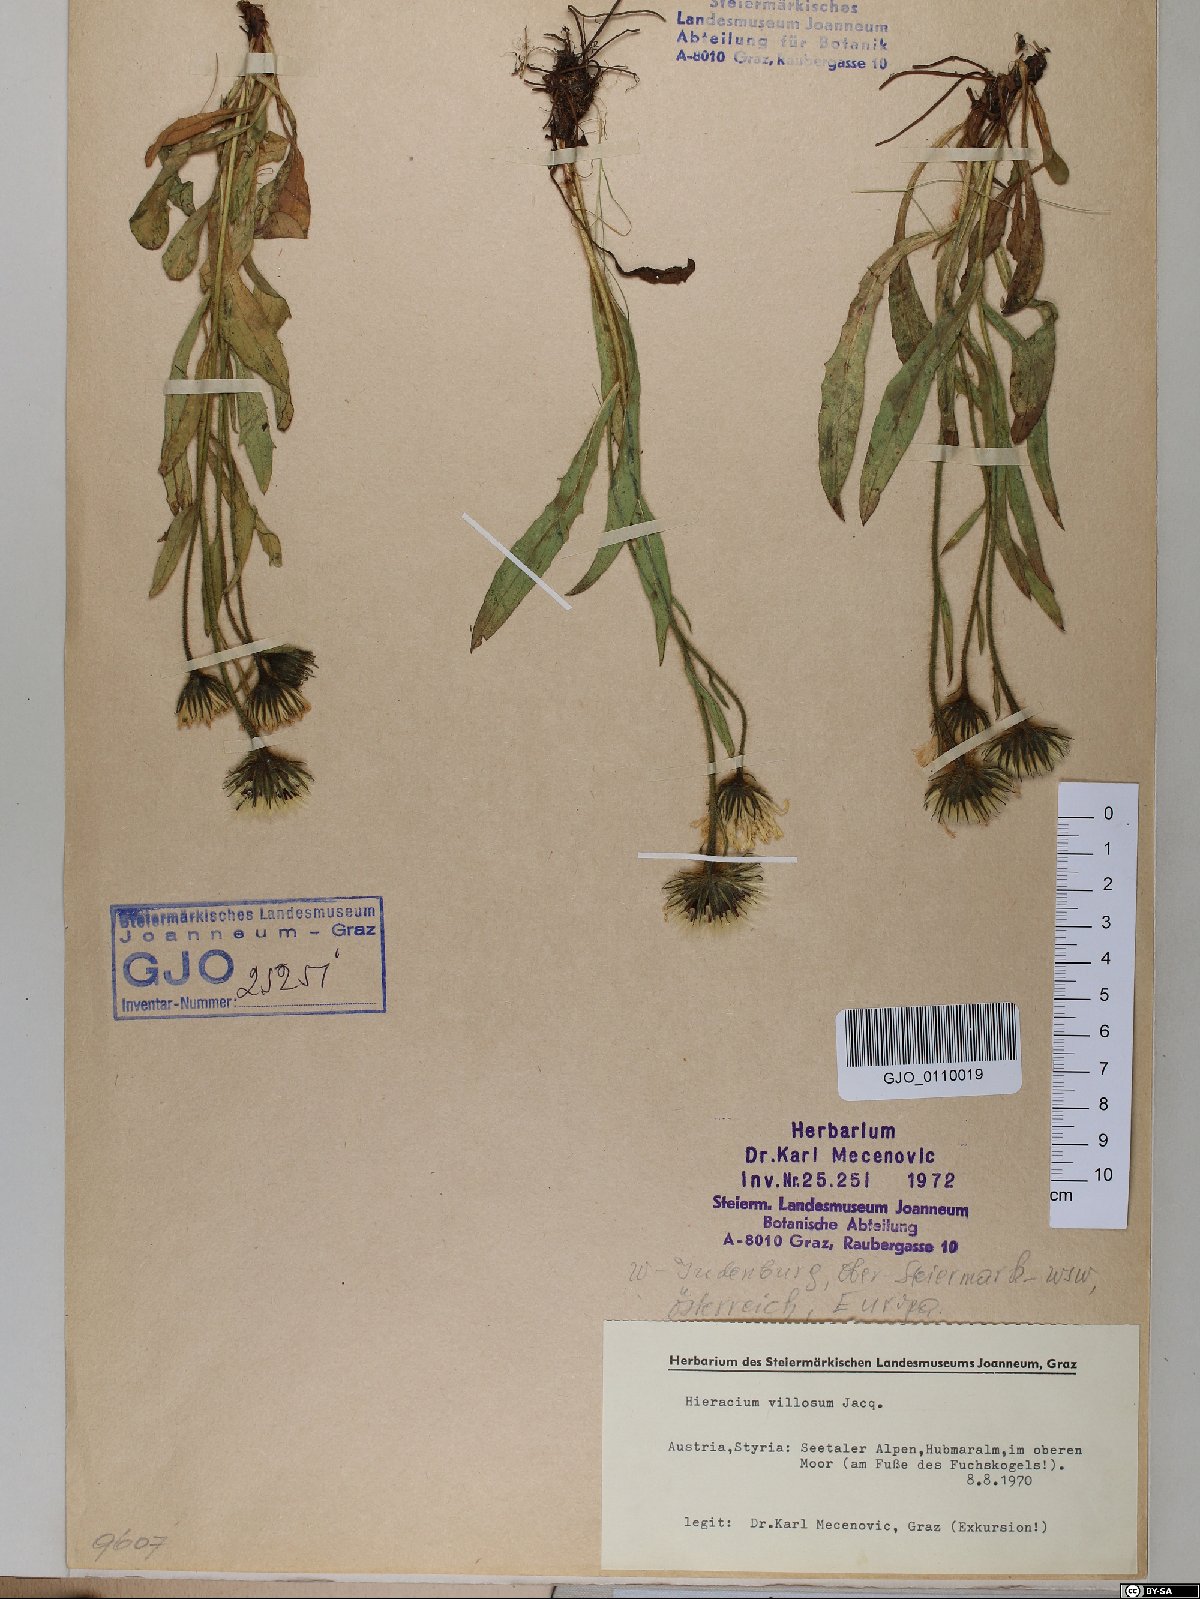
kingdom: Plantae
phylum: Tracheophyta
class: Magnoliopsida
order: Asterales
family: Asteraceae
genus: Hieracium
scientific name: Hieracium villosum
